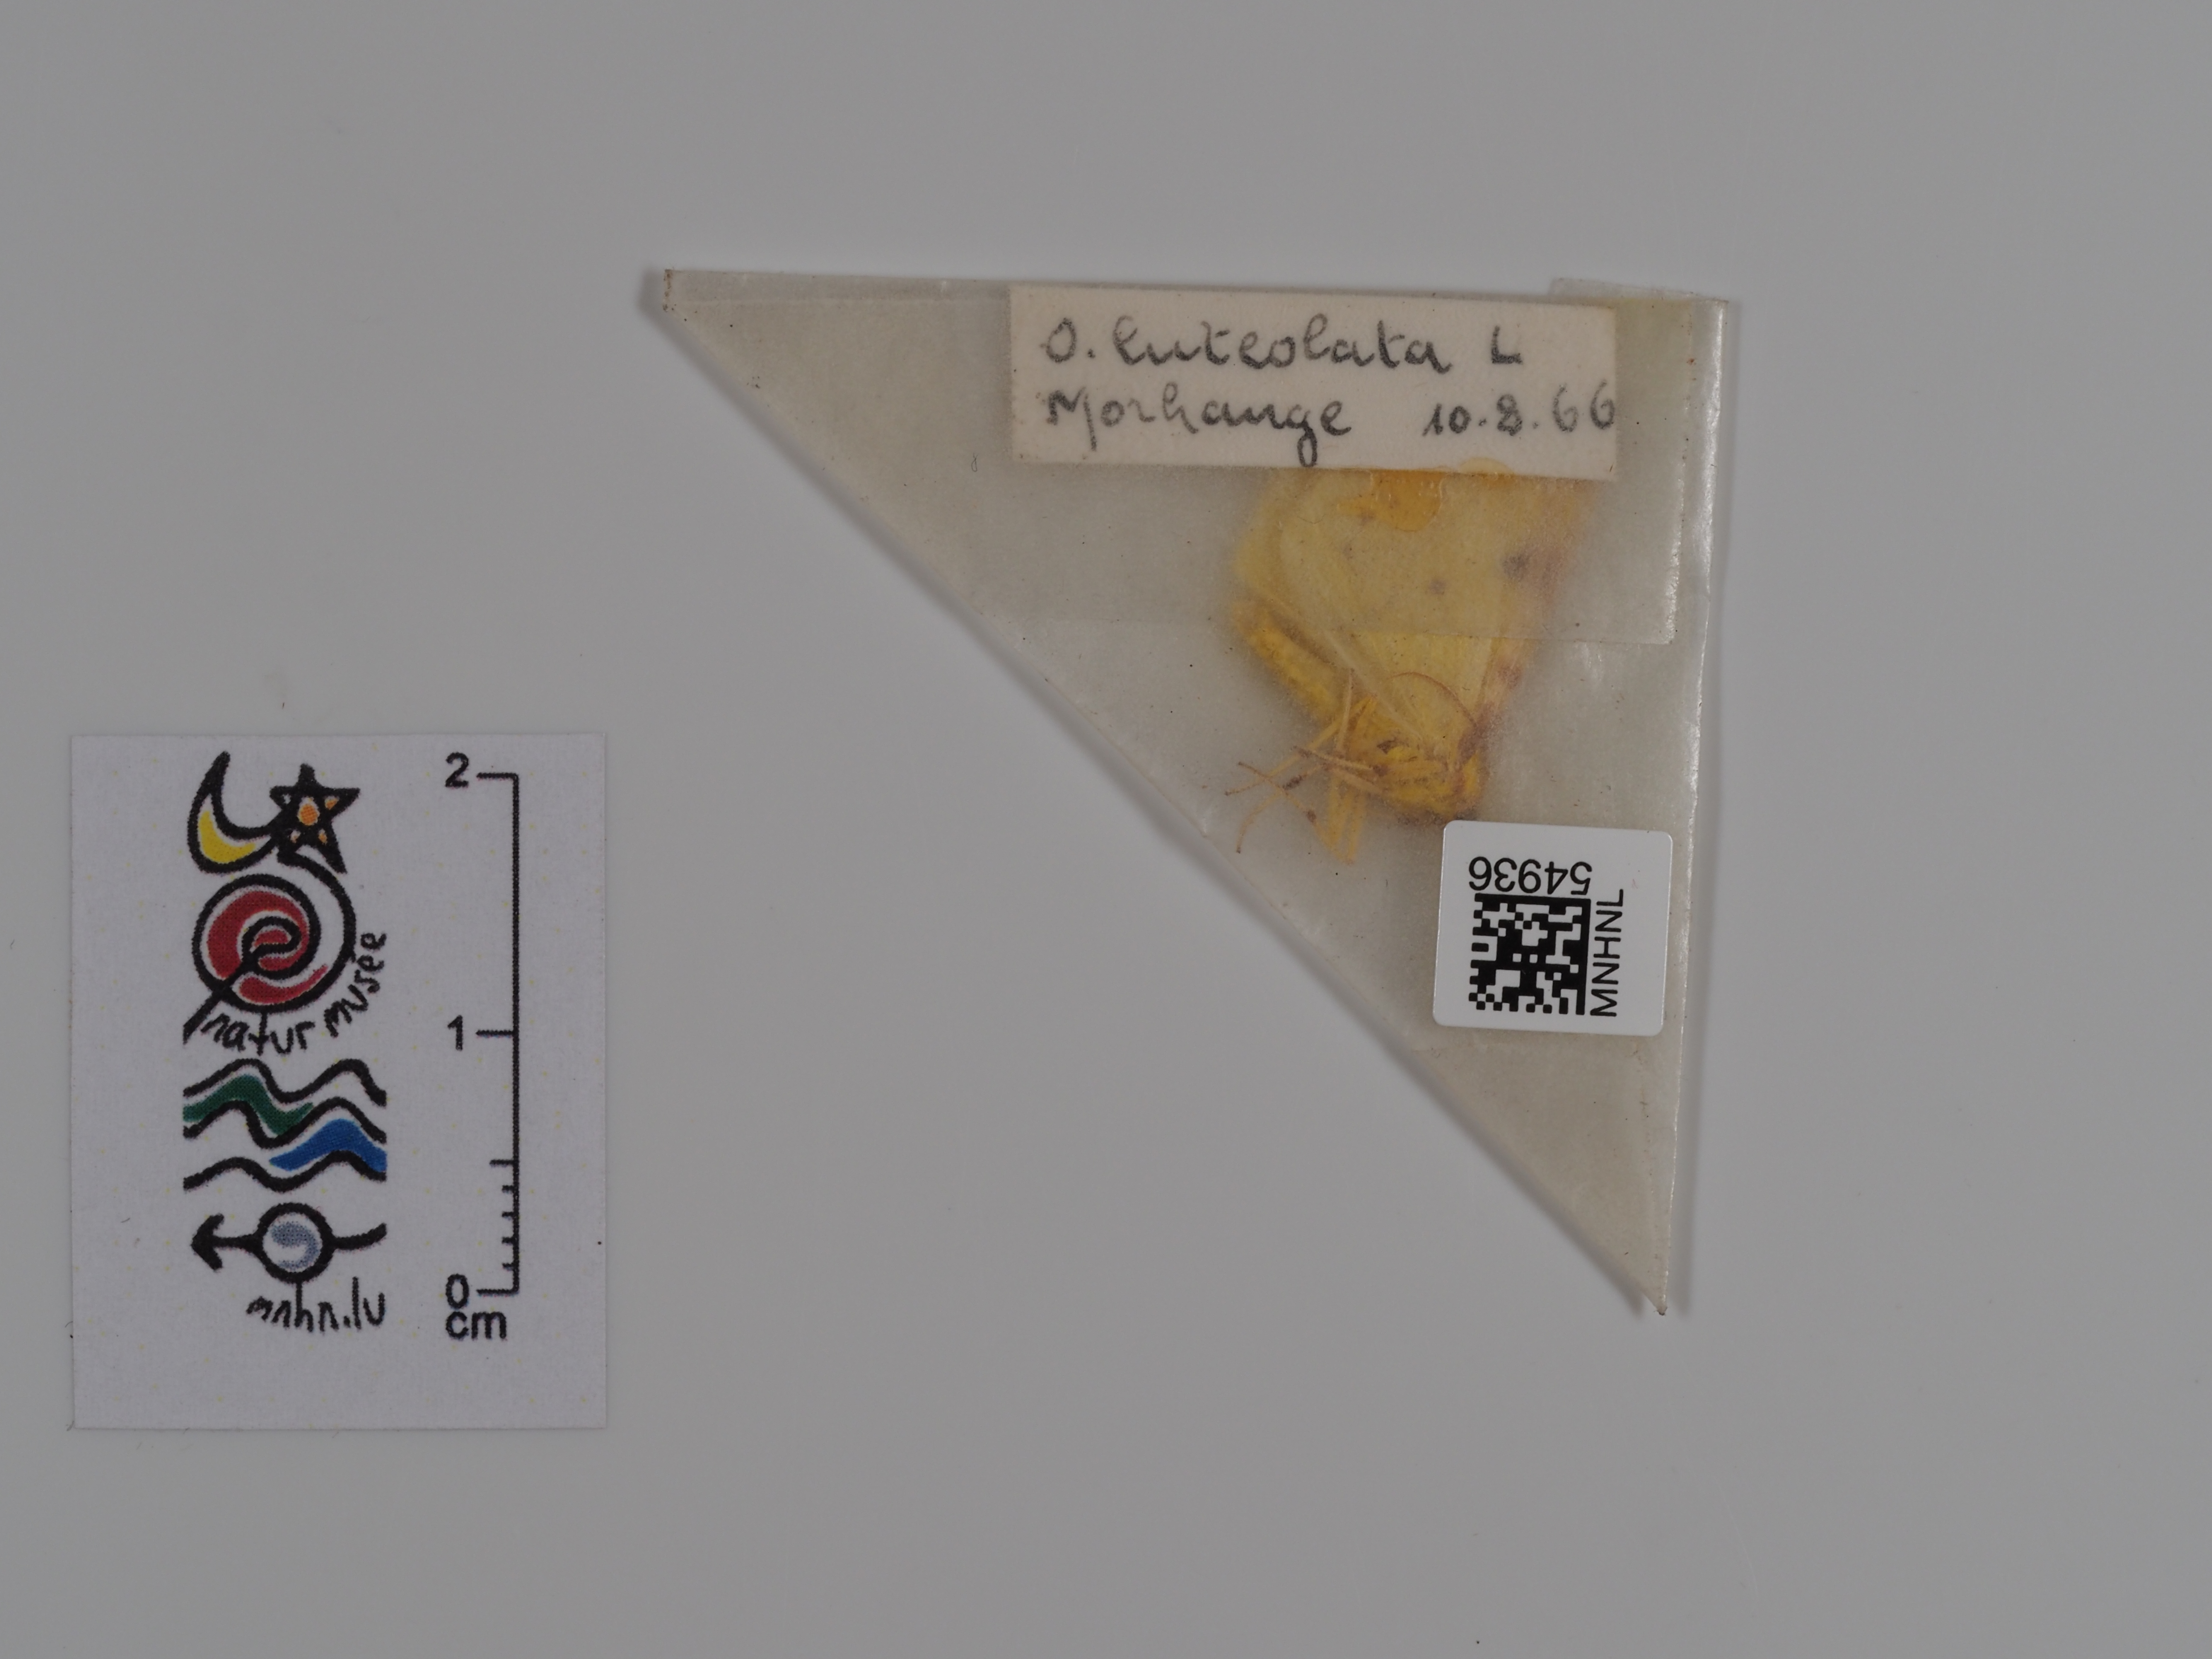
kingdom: Animalia
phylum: Arthropoda
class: Insecta
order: Lepidoptera
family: Geometridae
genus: Opisthograptis
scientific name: Opisthograptis luteolata
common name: Brimstone moth
